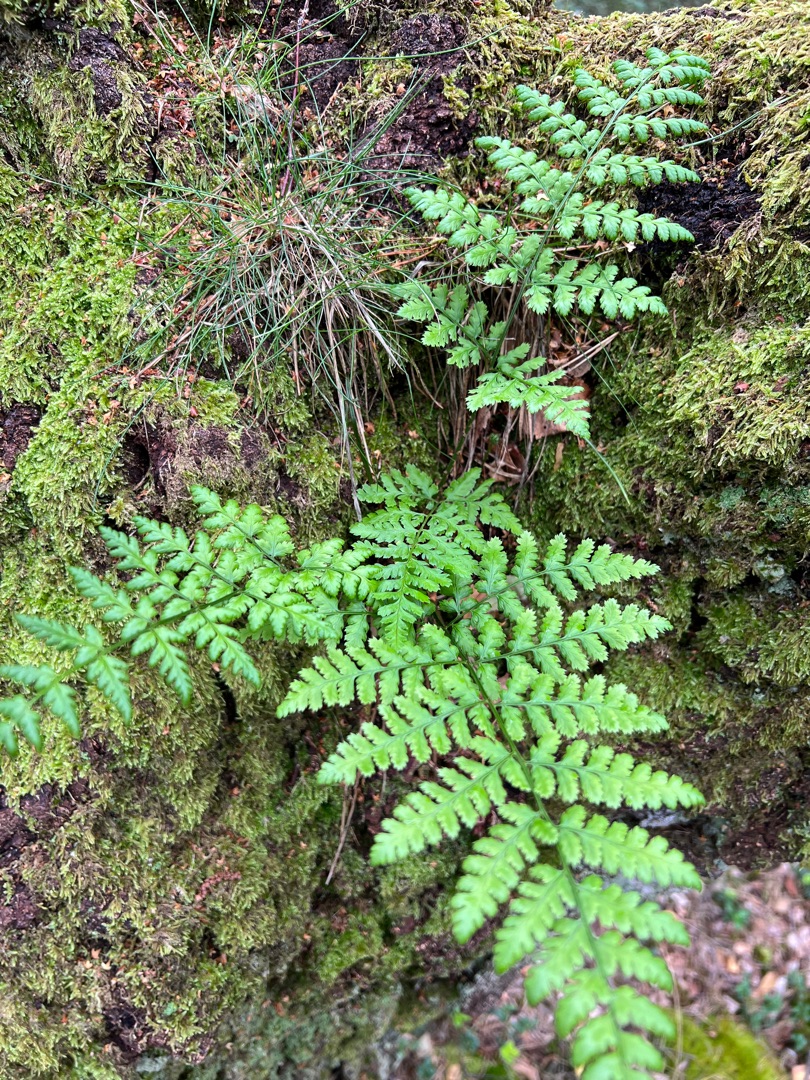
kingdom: Plantae
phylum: Tracheophyta
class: Polypodiopsida
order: Polypodiales
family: Dryopteridaceae
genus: Dryopteris
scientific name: Dryopteris dilatata
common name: Bredbladet mangeløv
